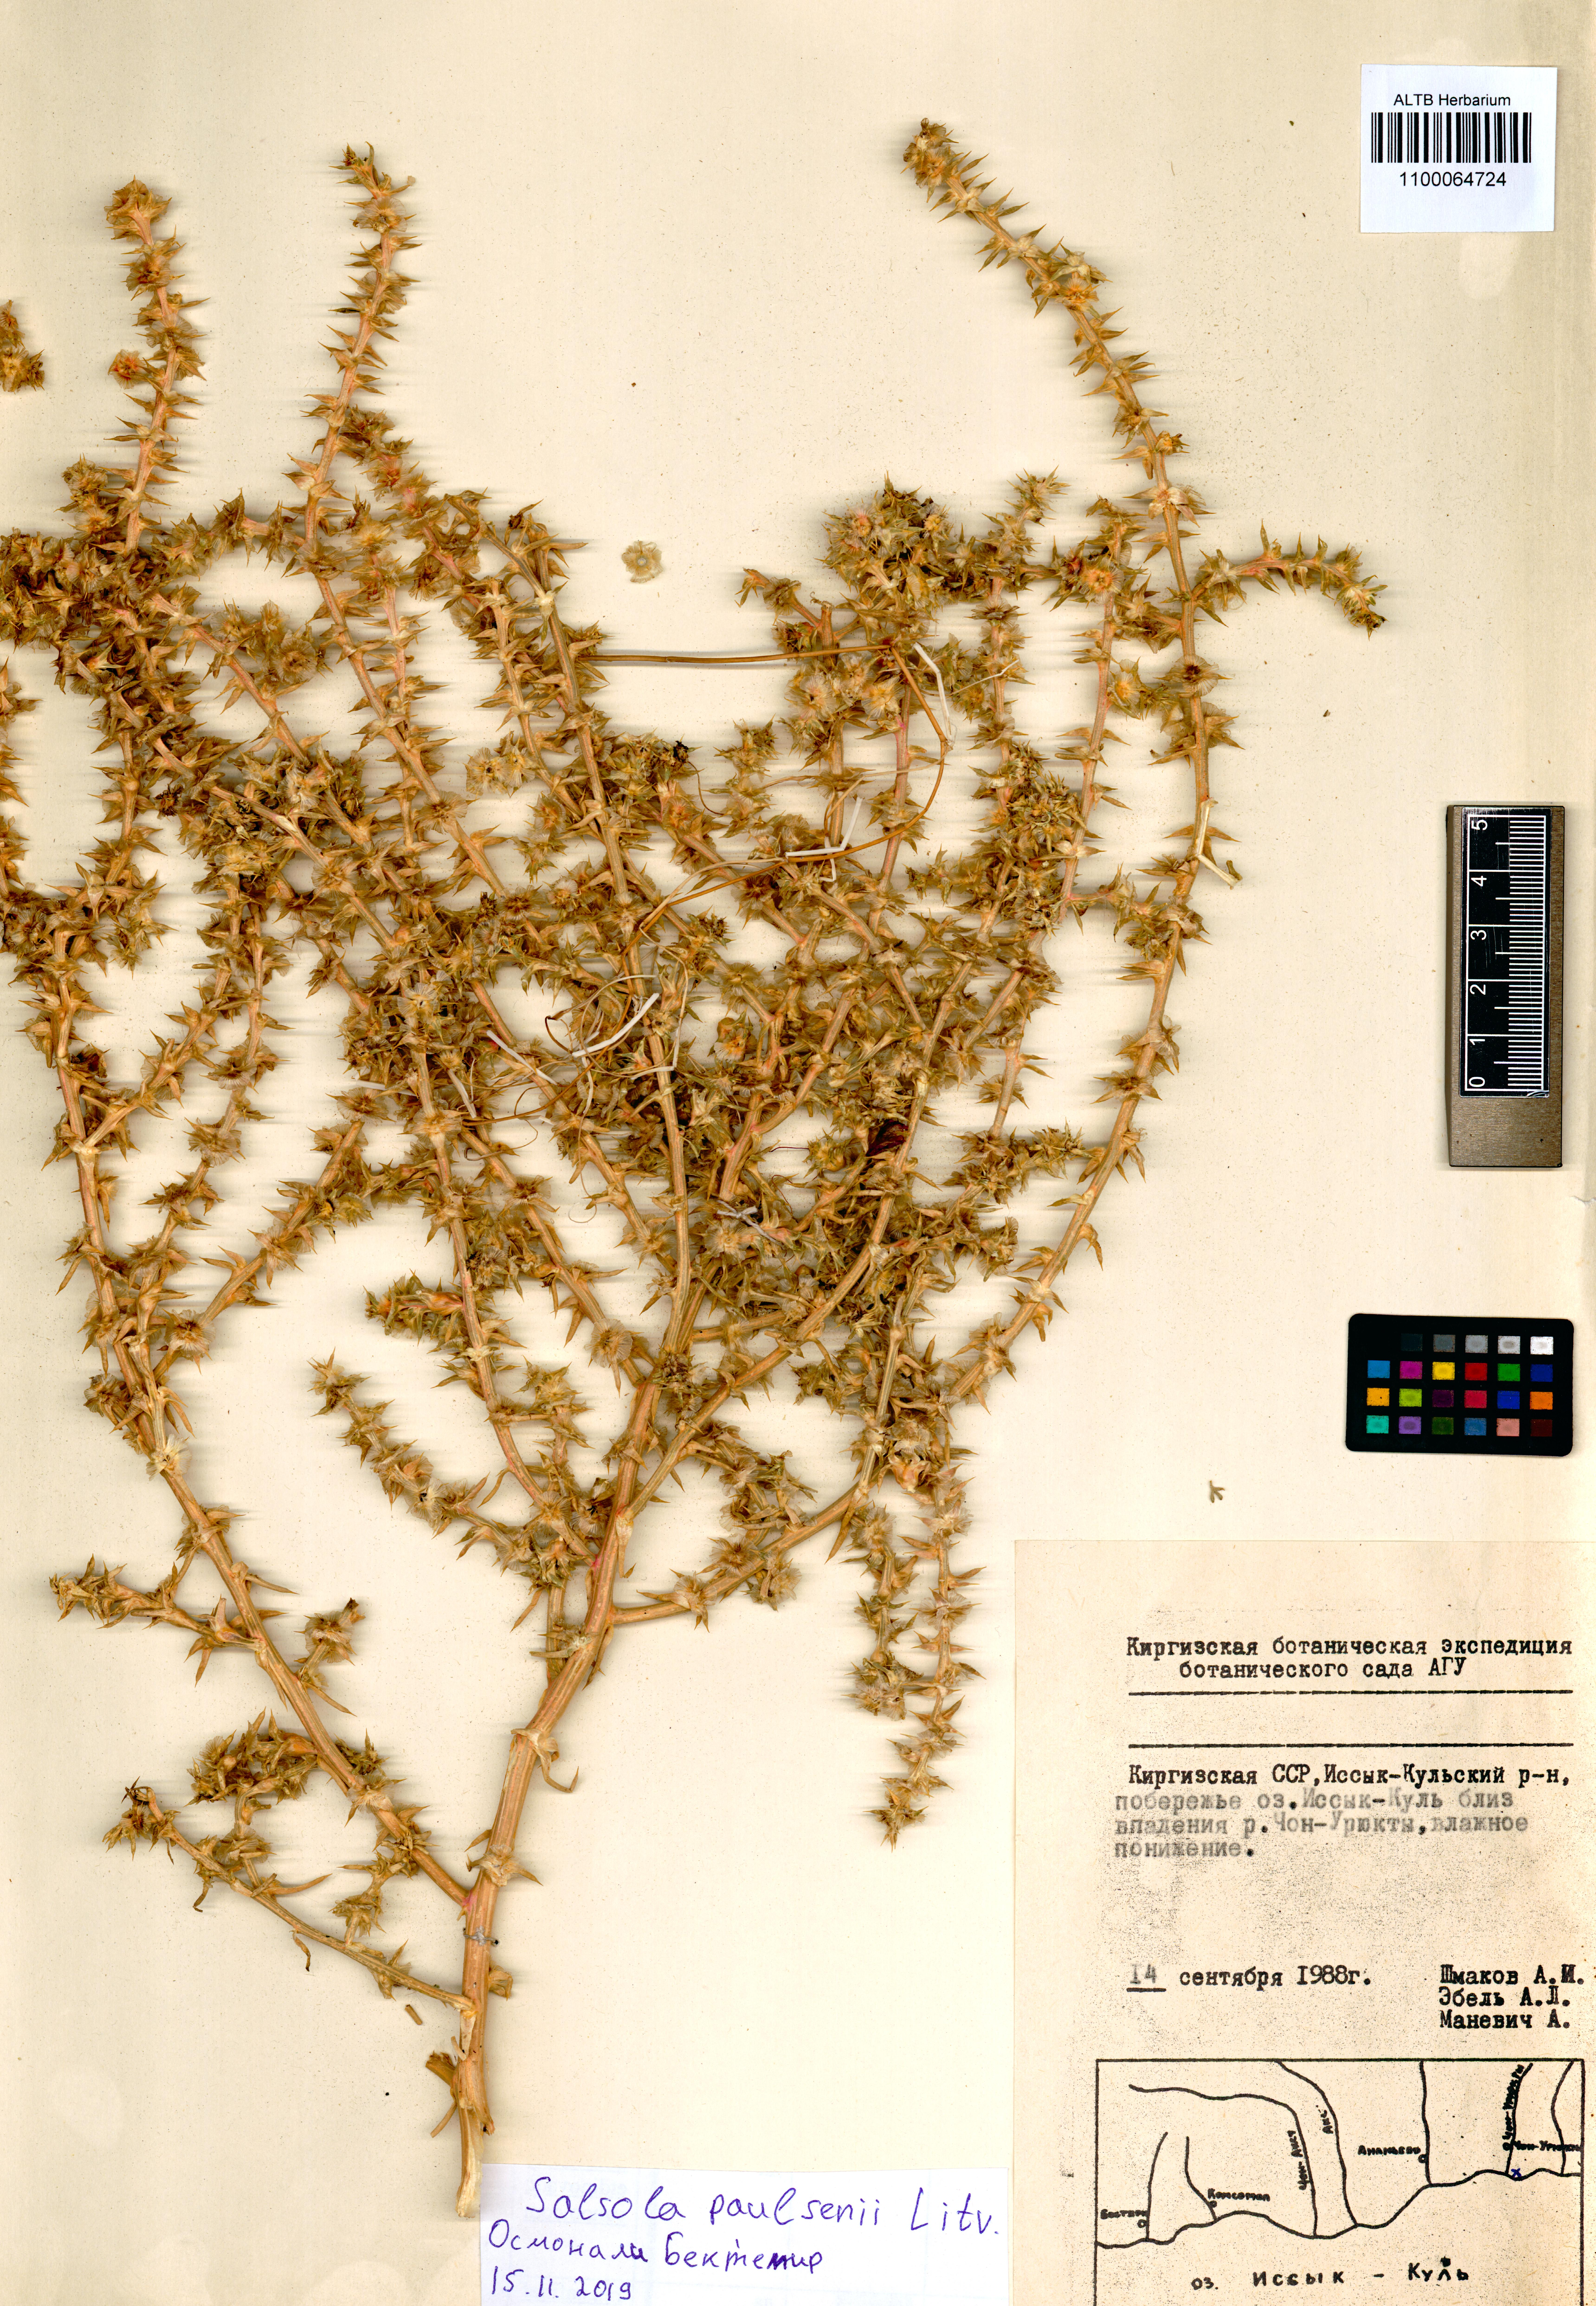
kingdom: Plantae
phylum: Tracheophyta
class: Magnoliopsida
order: Caryophyllales
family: Amaranthaceae
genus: Salsola
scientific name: Salsola paulsenii
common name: Barbwire russian thistle
